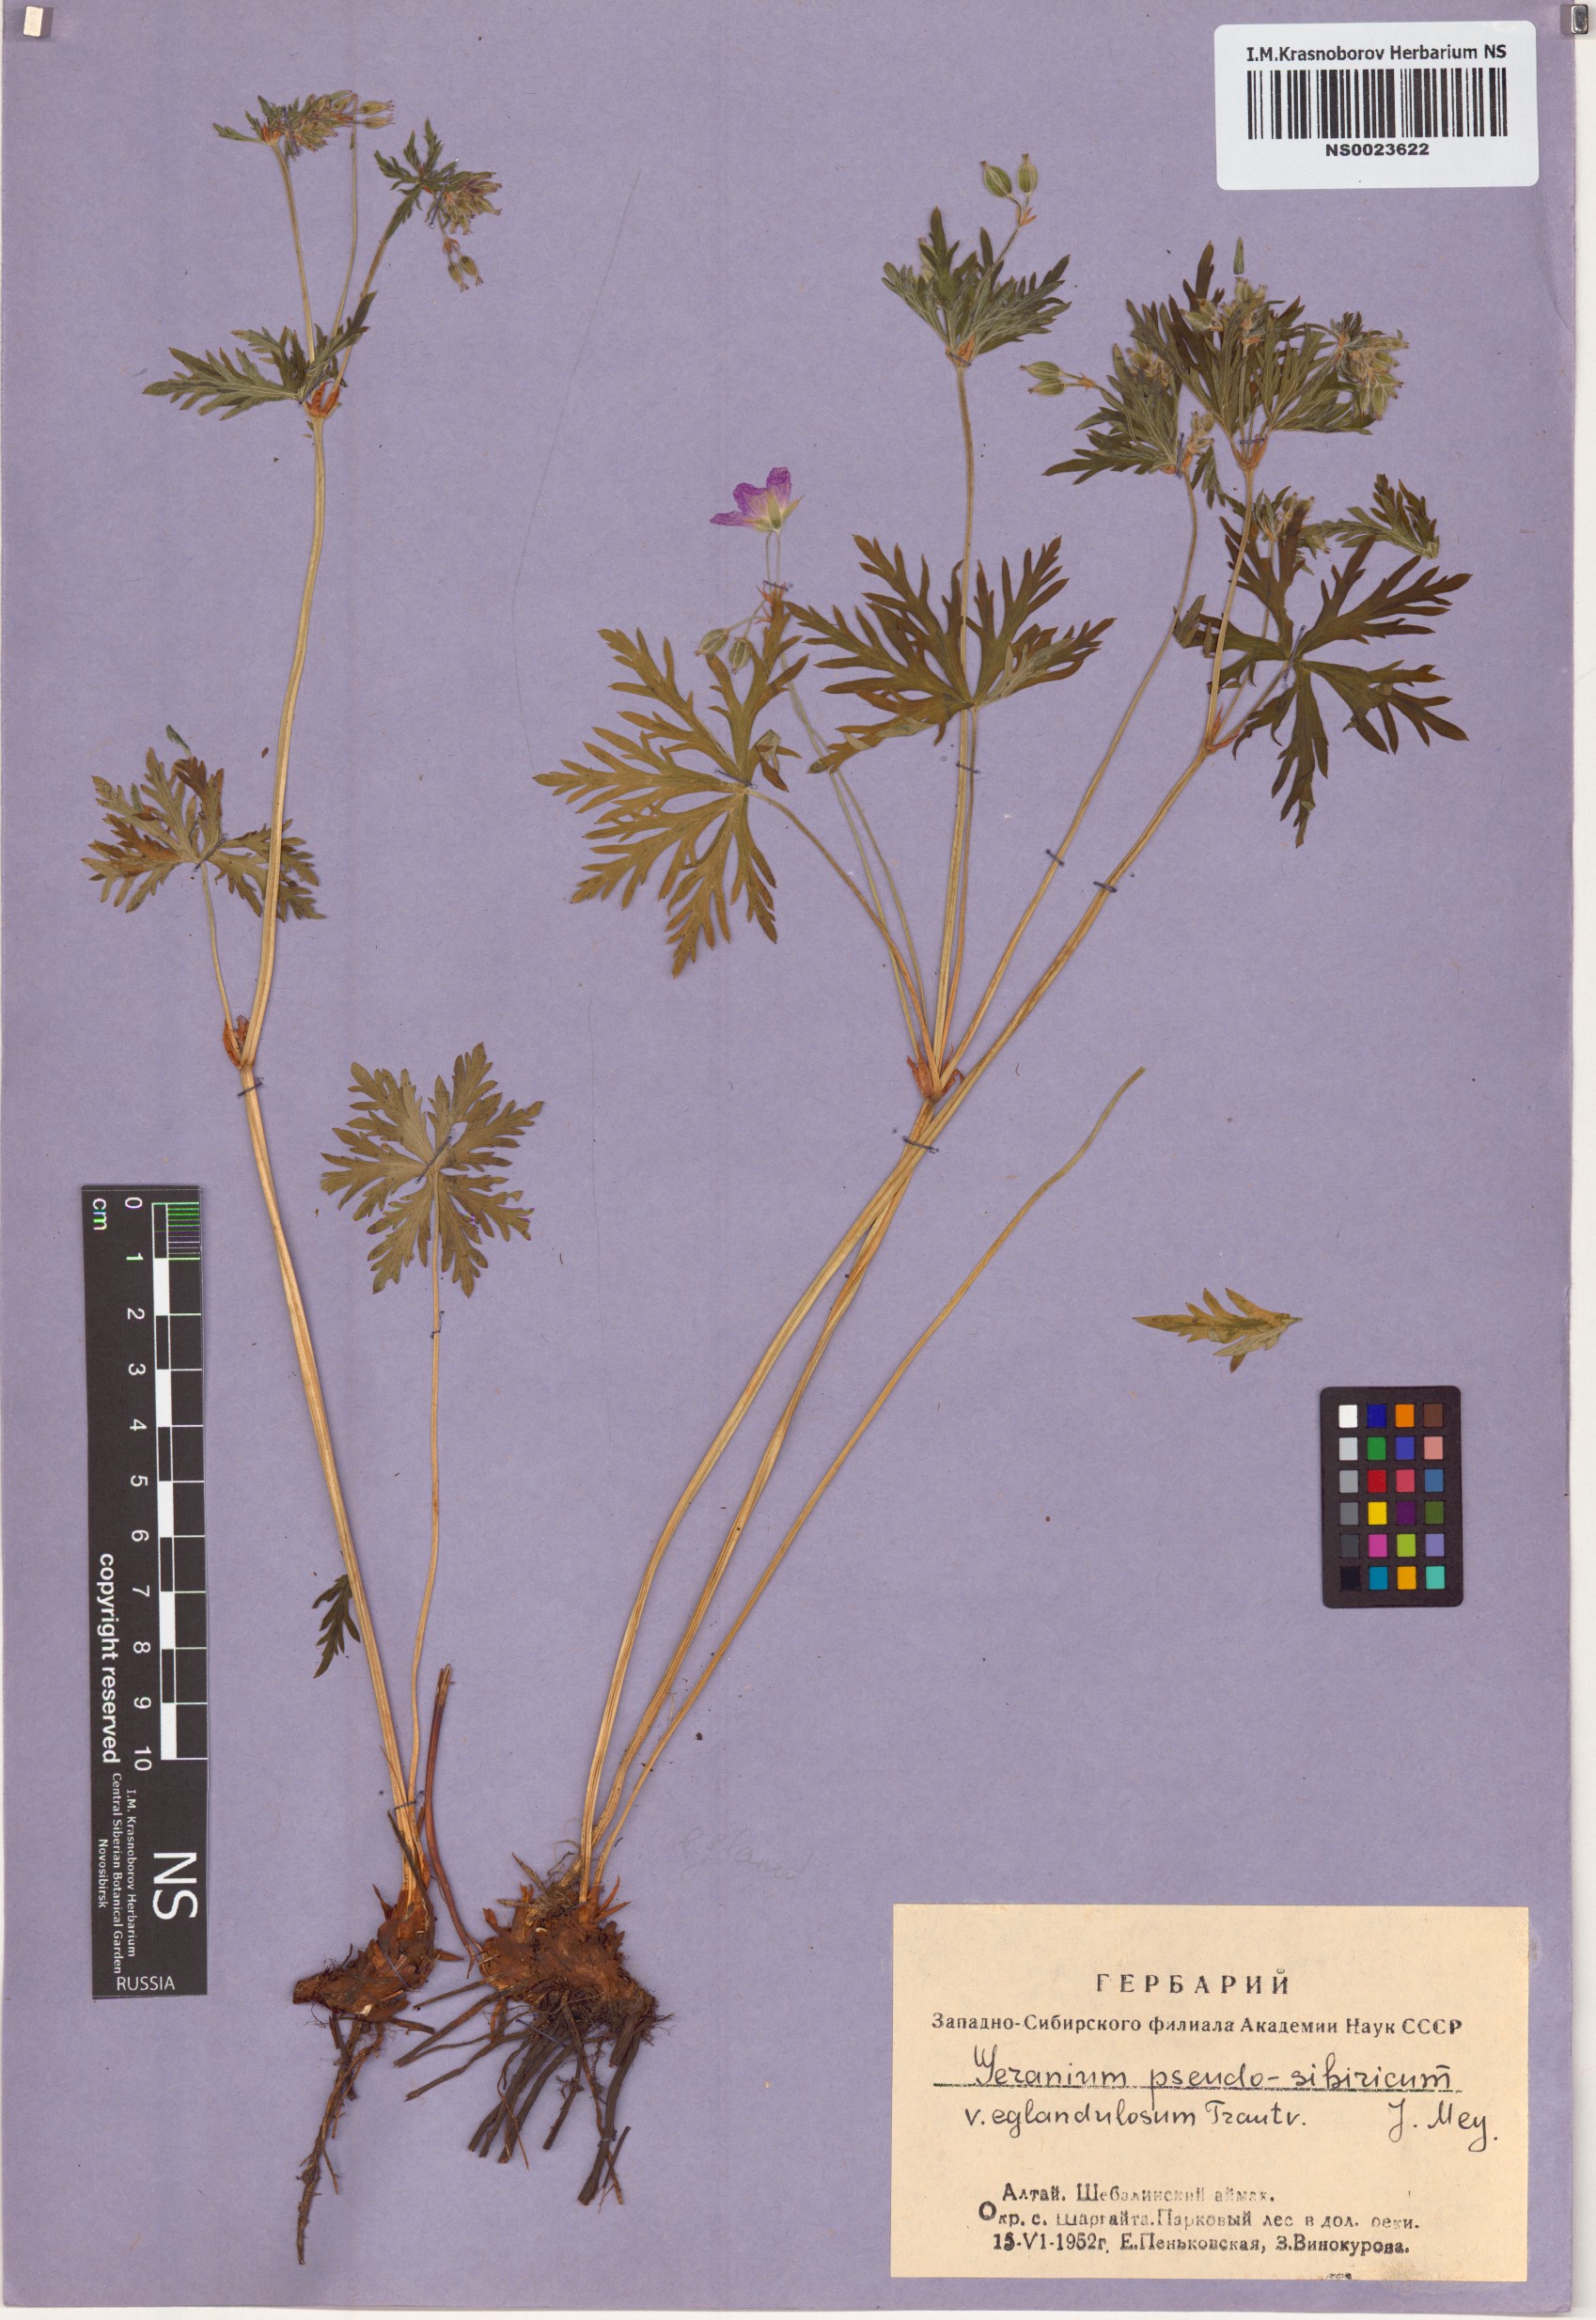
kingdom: Plantae
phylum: Tracheophyta
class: Magnoliopsida
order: Geraniales
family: Geraniaceae
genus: Geranium
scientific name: Geranium pseudosibiricum
